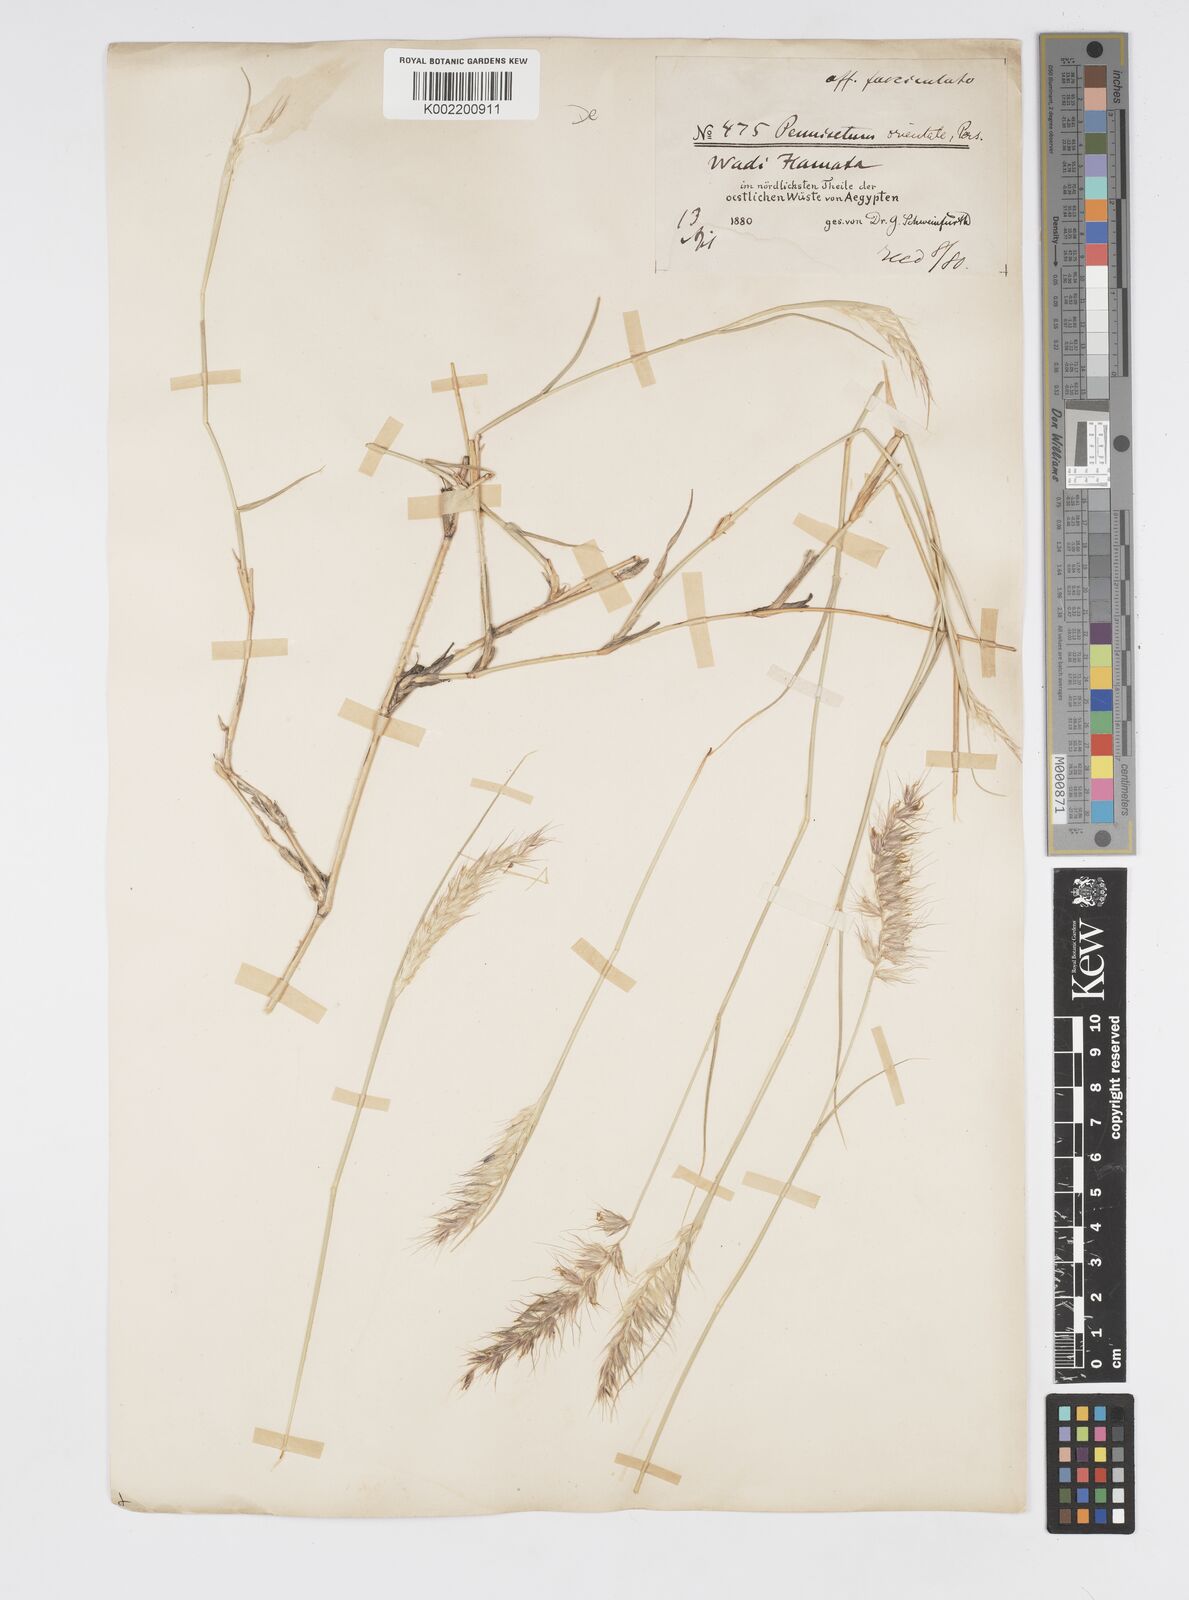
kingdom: Plantae
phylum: Tracheophyta
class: Liliopsida
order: Poales
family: Poaceae
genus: Cenchrus
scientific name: Cenchrus orientalis
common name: Oriental fountain grass
